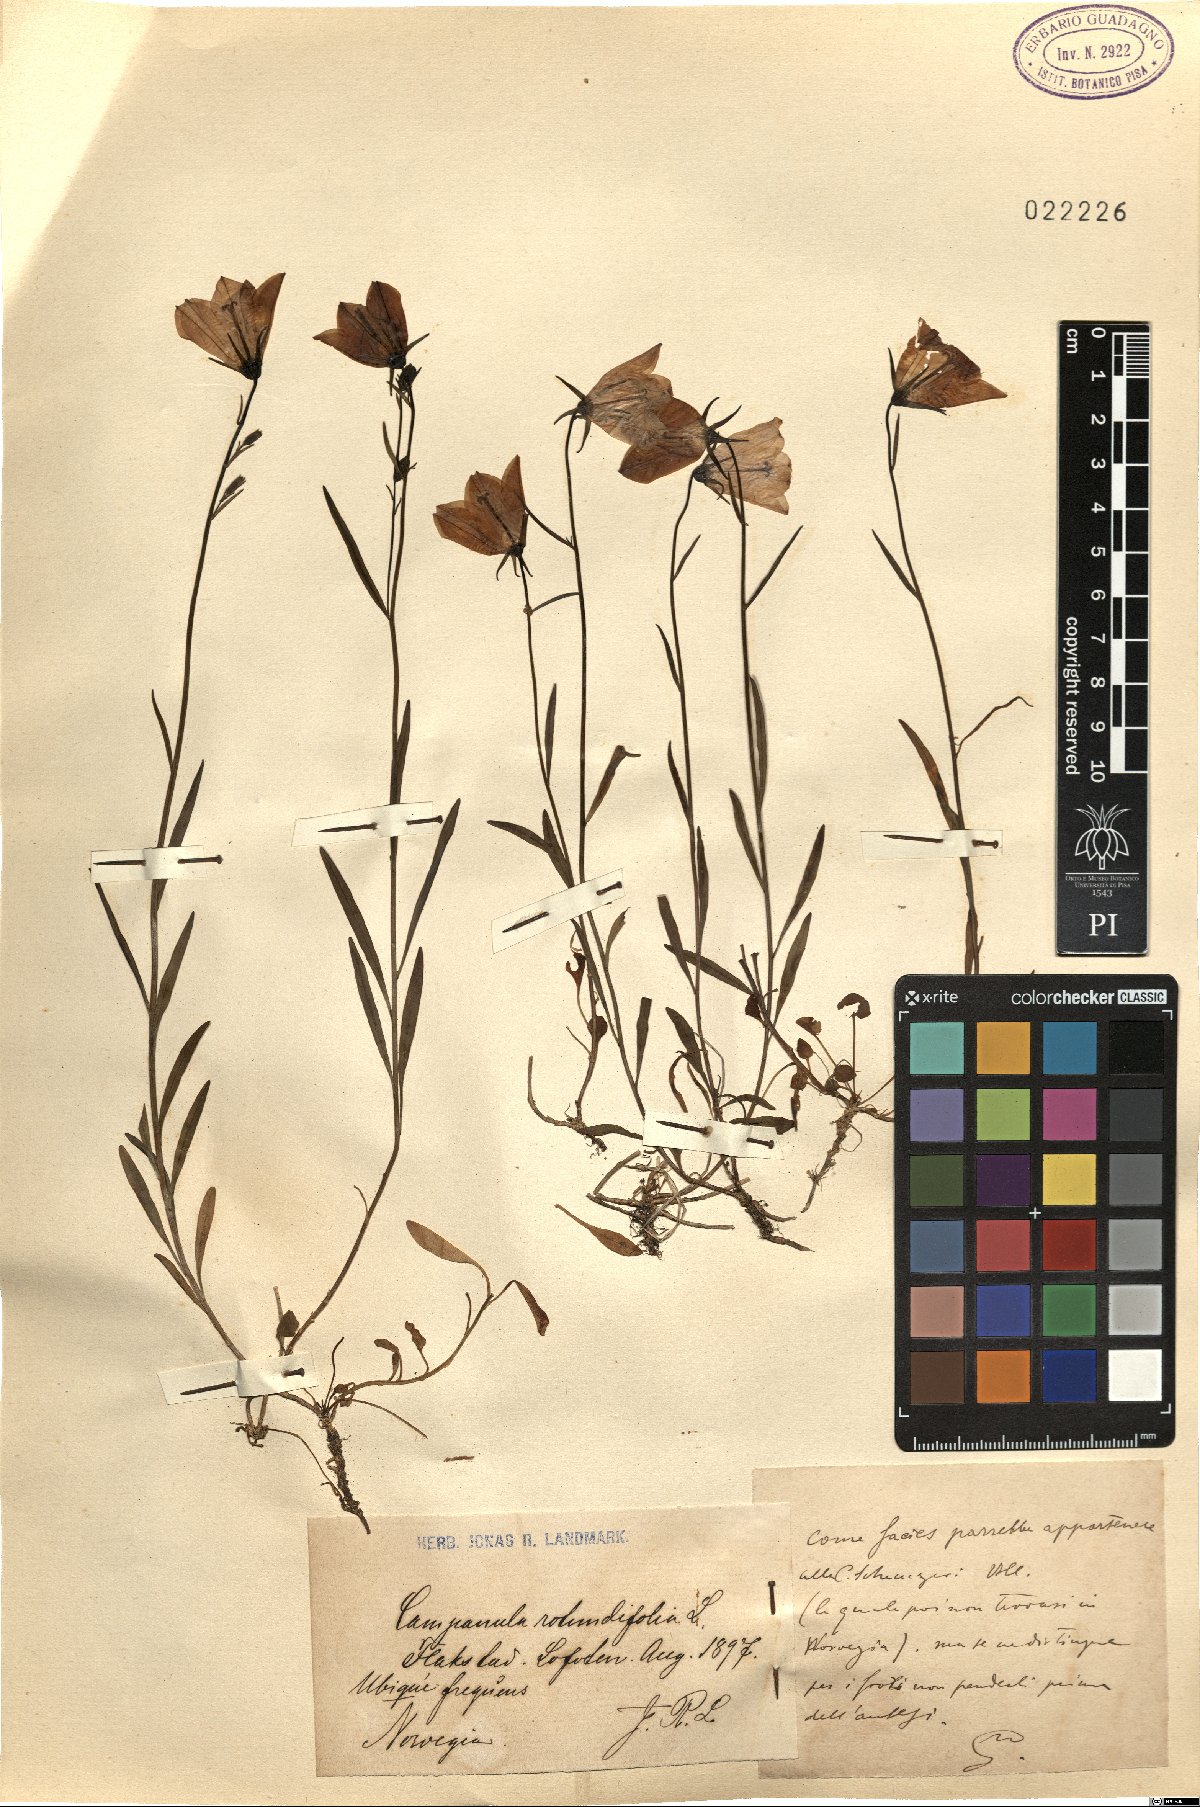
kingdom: Plantae
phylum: Tracheophyta
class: Magnoliopsida
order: Asterales
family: Campanulaceae
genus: Campanula
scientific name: Campanula rotundifolia
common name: Harebell
